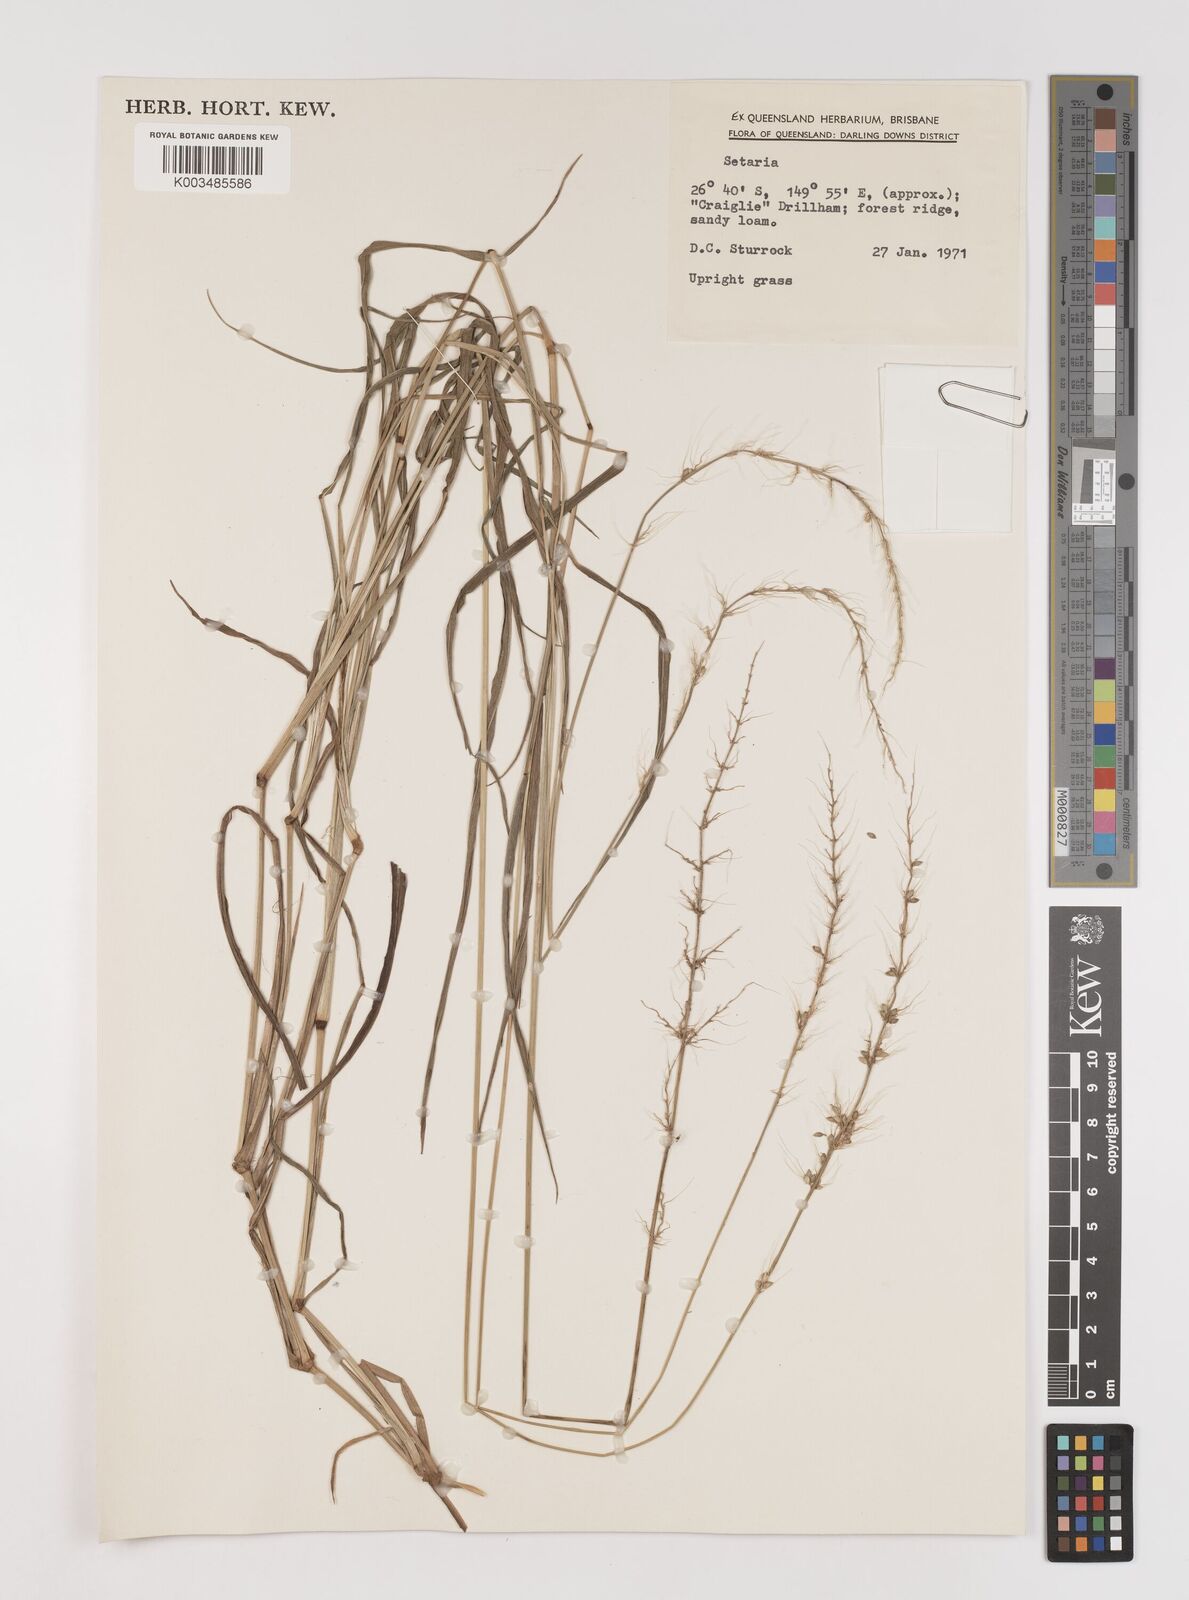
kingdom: Plantae
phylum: Tracheophyta
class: Liliopsida
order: Poales
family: Poaceae
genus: Setaria
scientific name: Setaria
